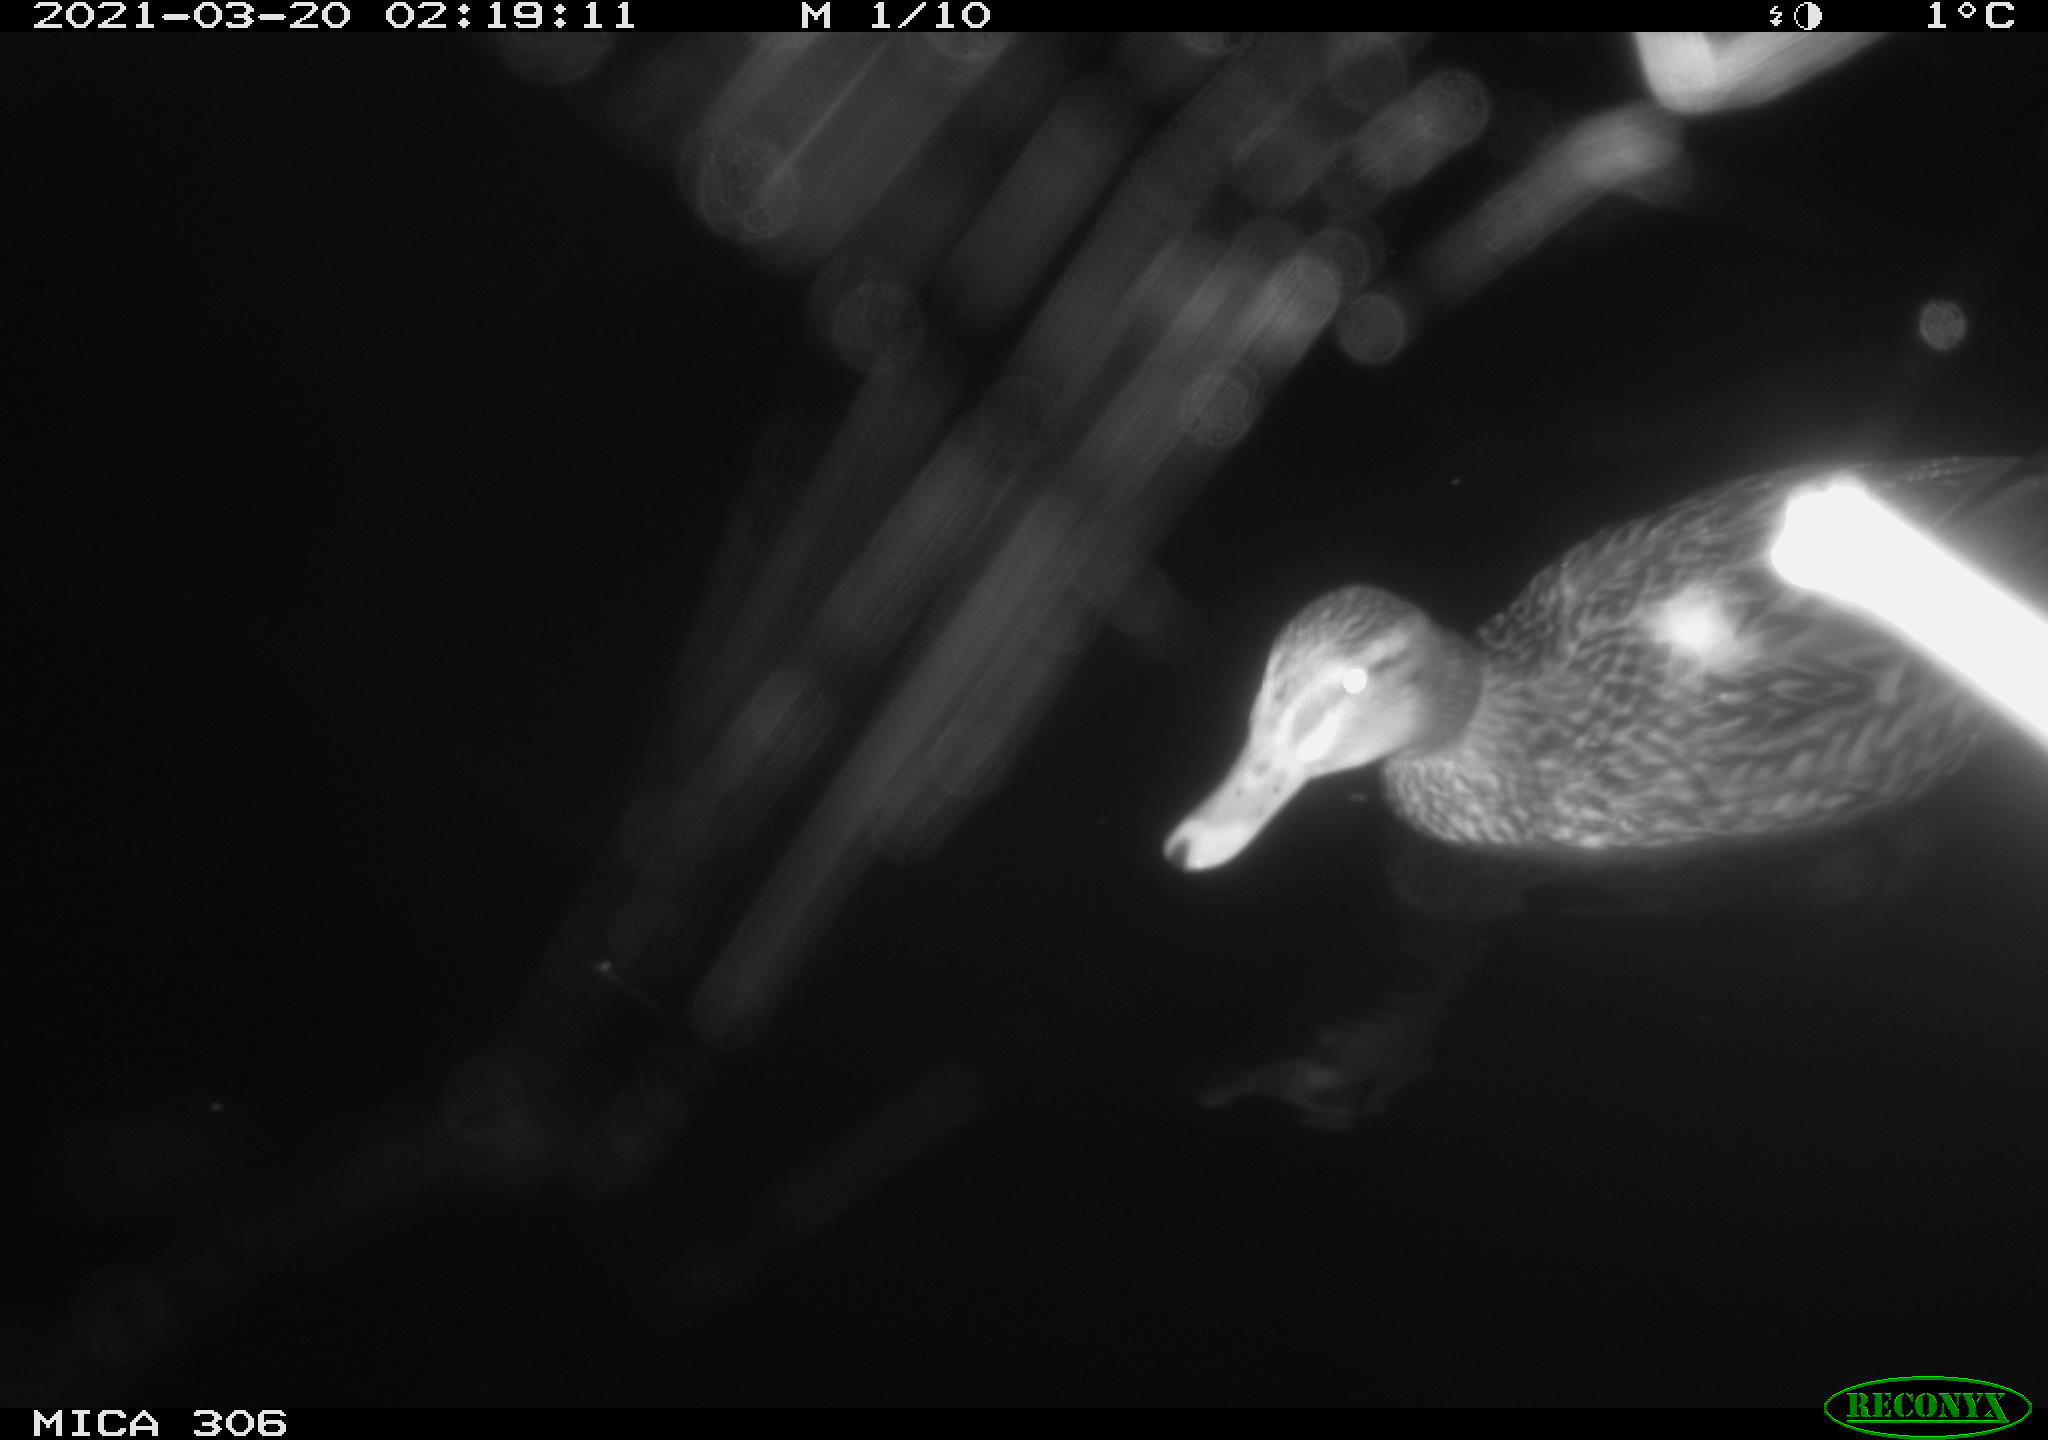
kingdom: Animalia
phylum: Chordata
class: Aves
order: Anseriformes
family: Anatidae
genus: Anas
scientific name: Anas platyrhynchos
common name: Mallard
